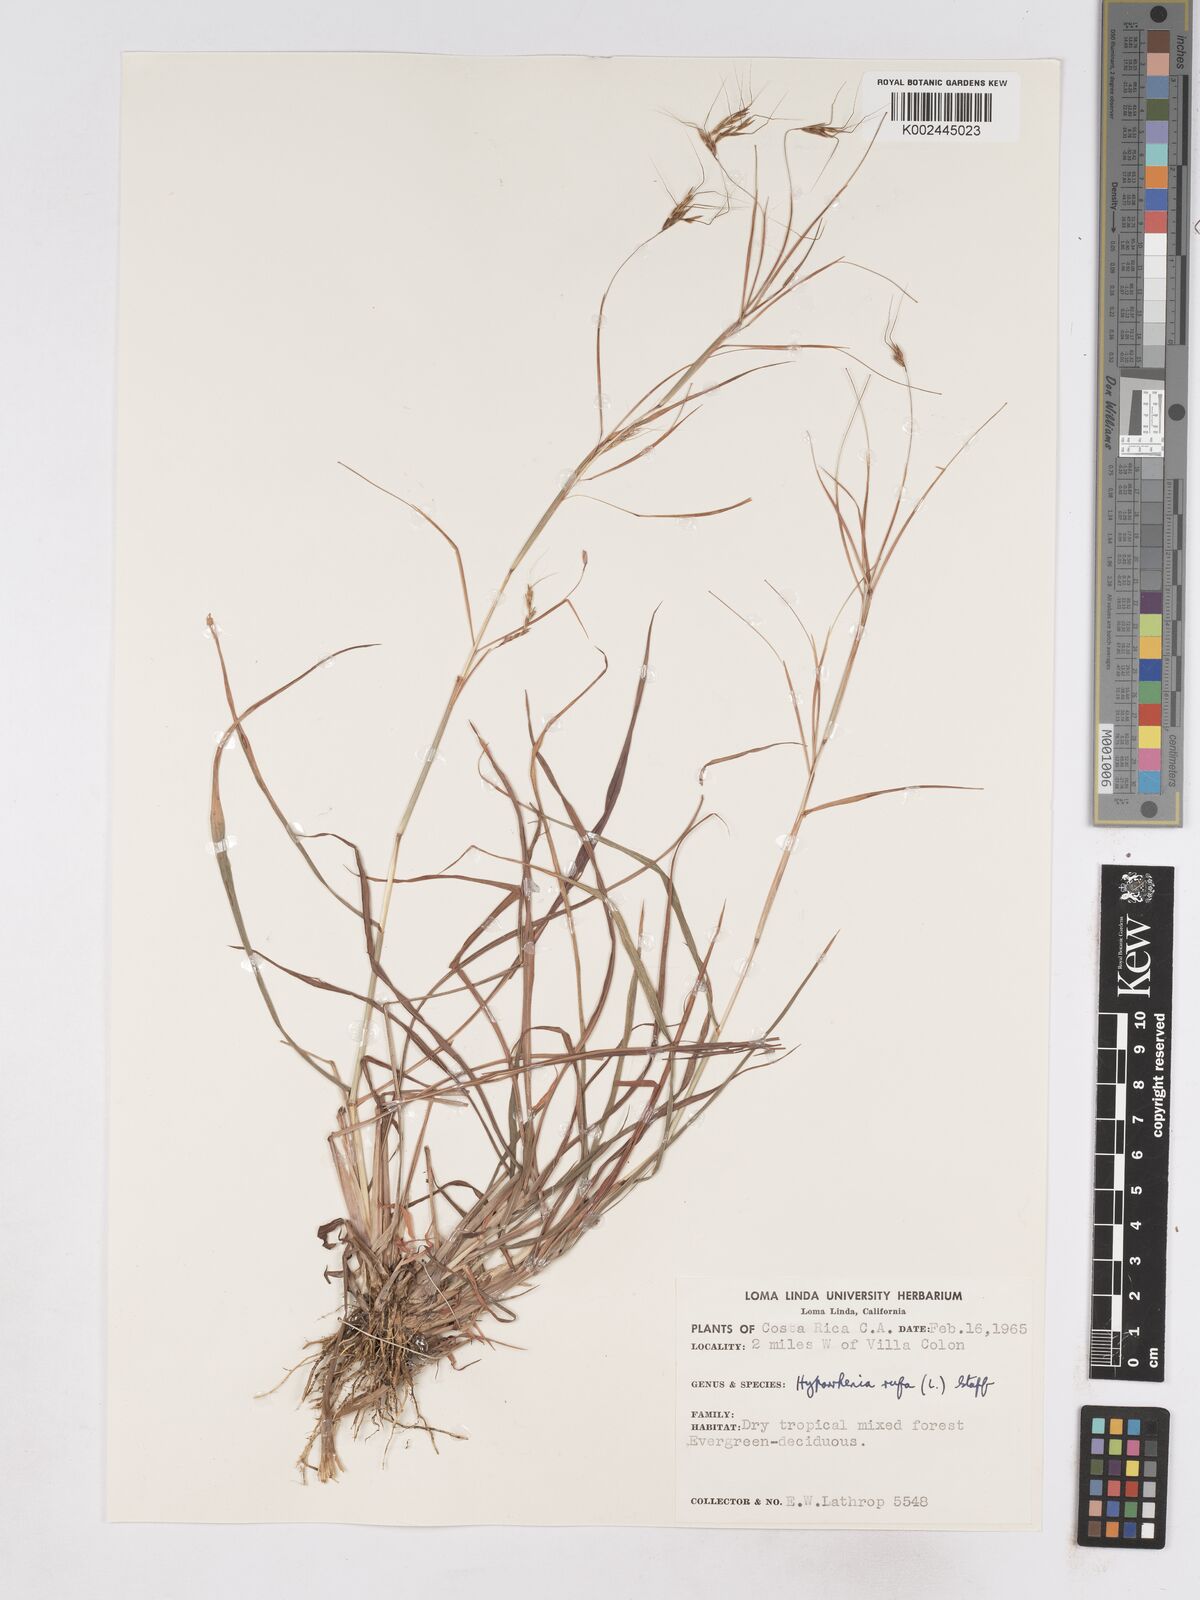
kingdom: Plantae
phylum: Tracheophyta
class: Liliopsida
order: Poales
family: Poaceae
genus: Hyparrhenia
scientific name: Hyparrhenia rufa
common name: Jaraguagrass
